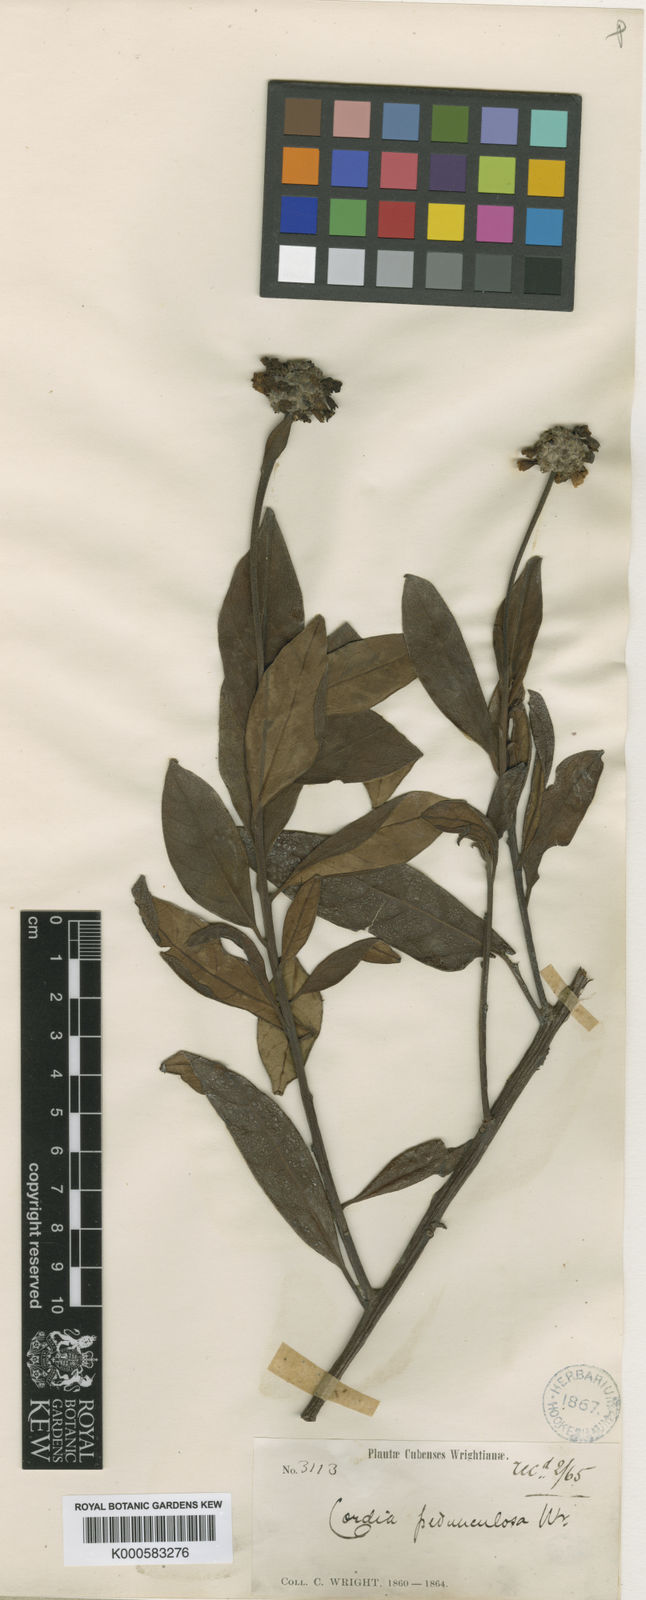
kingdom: Plantae
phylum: Tracheophyta
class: Magnoliopsida
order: Boraginales
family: Cordiaceae
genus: Varronia
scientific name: Varronia pedunculosa
